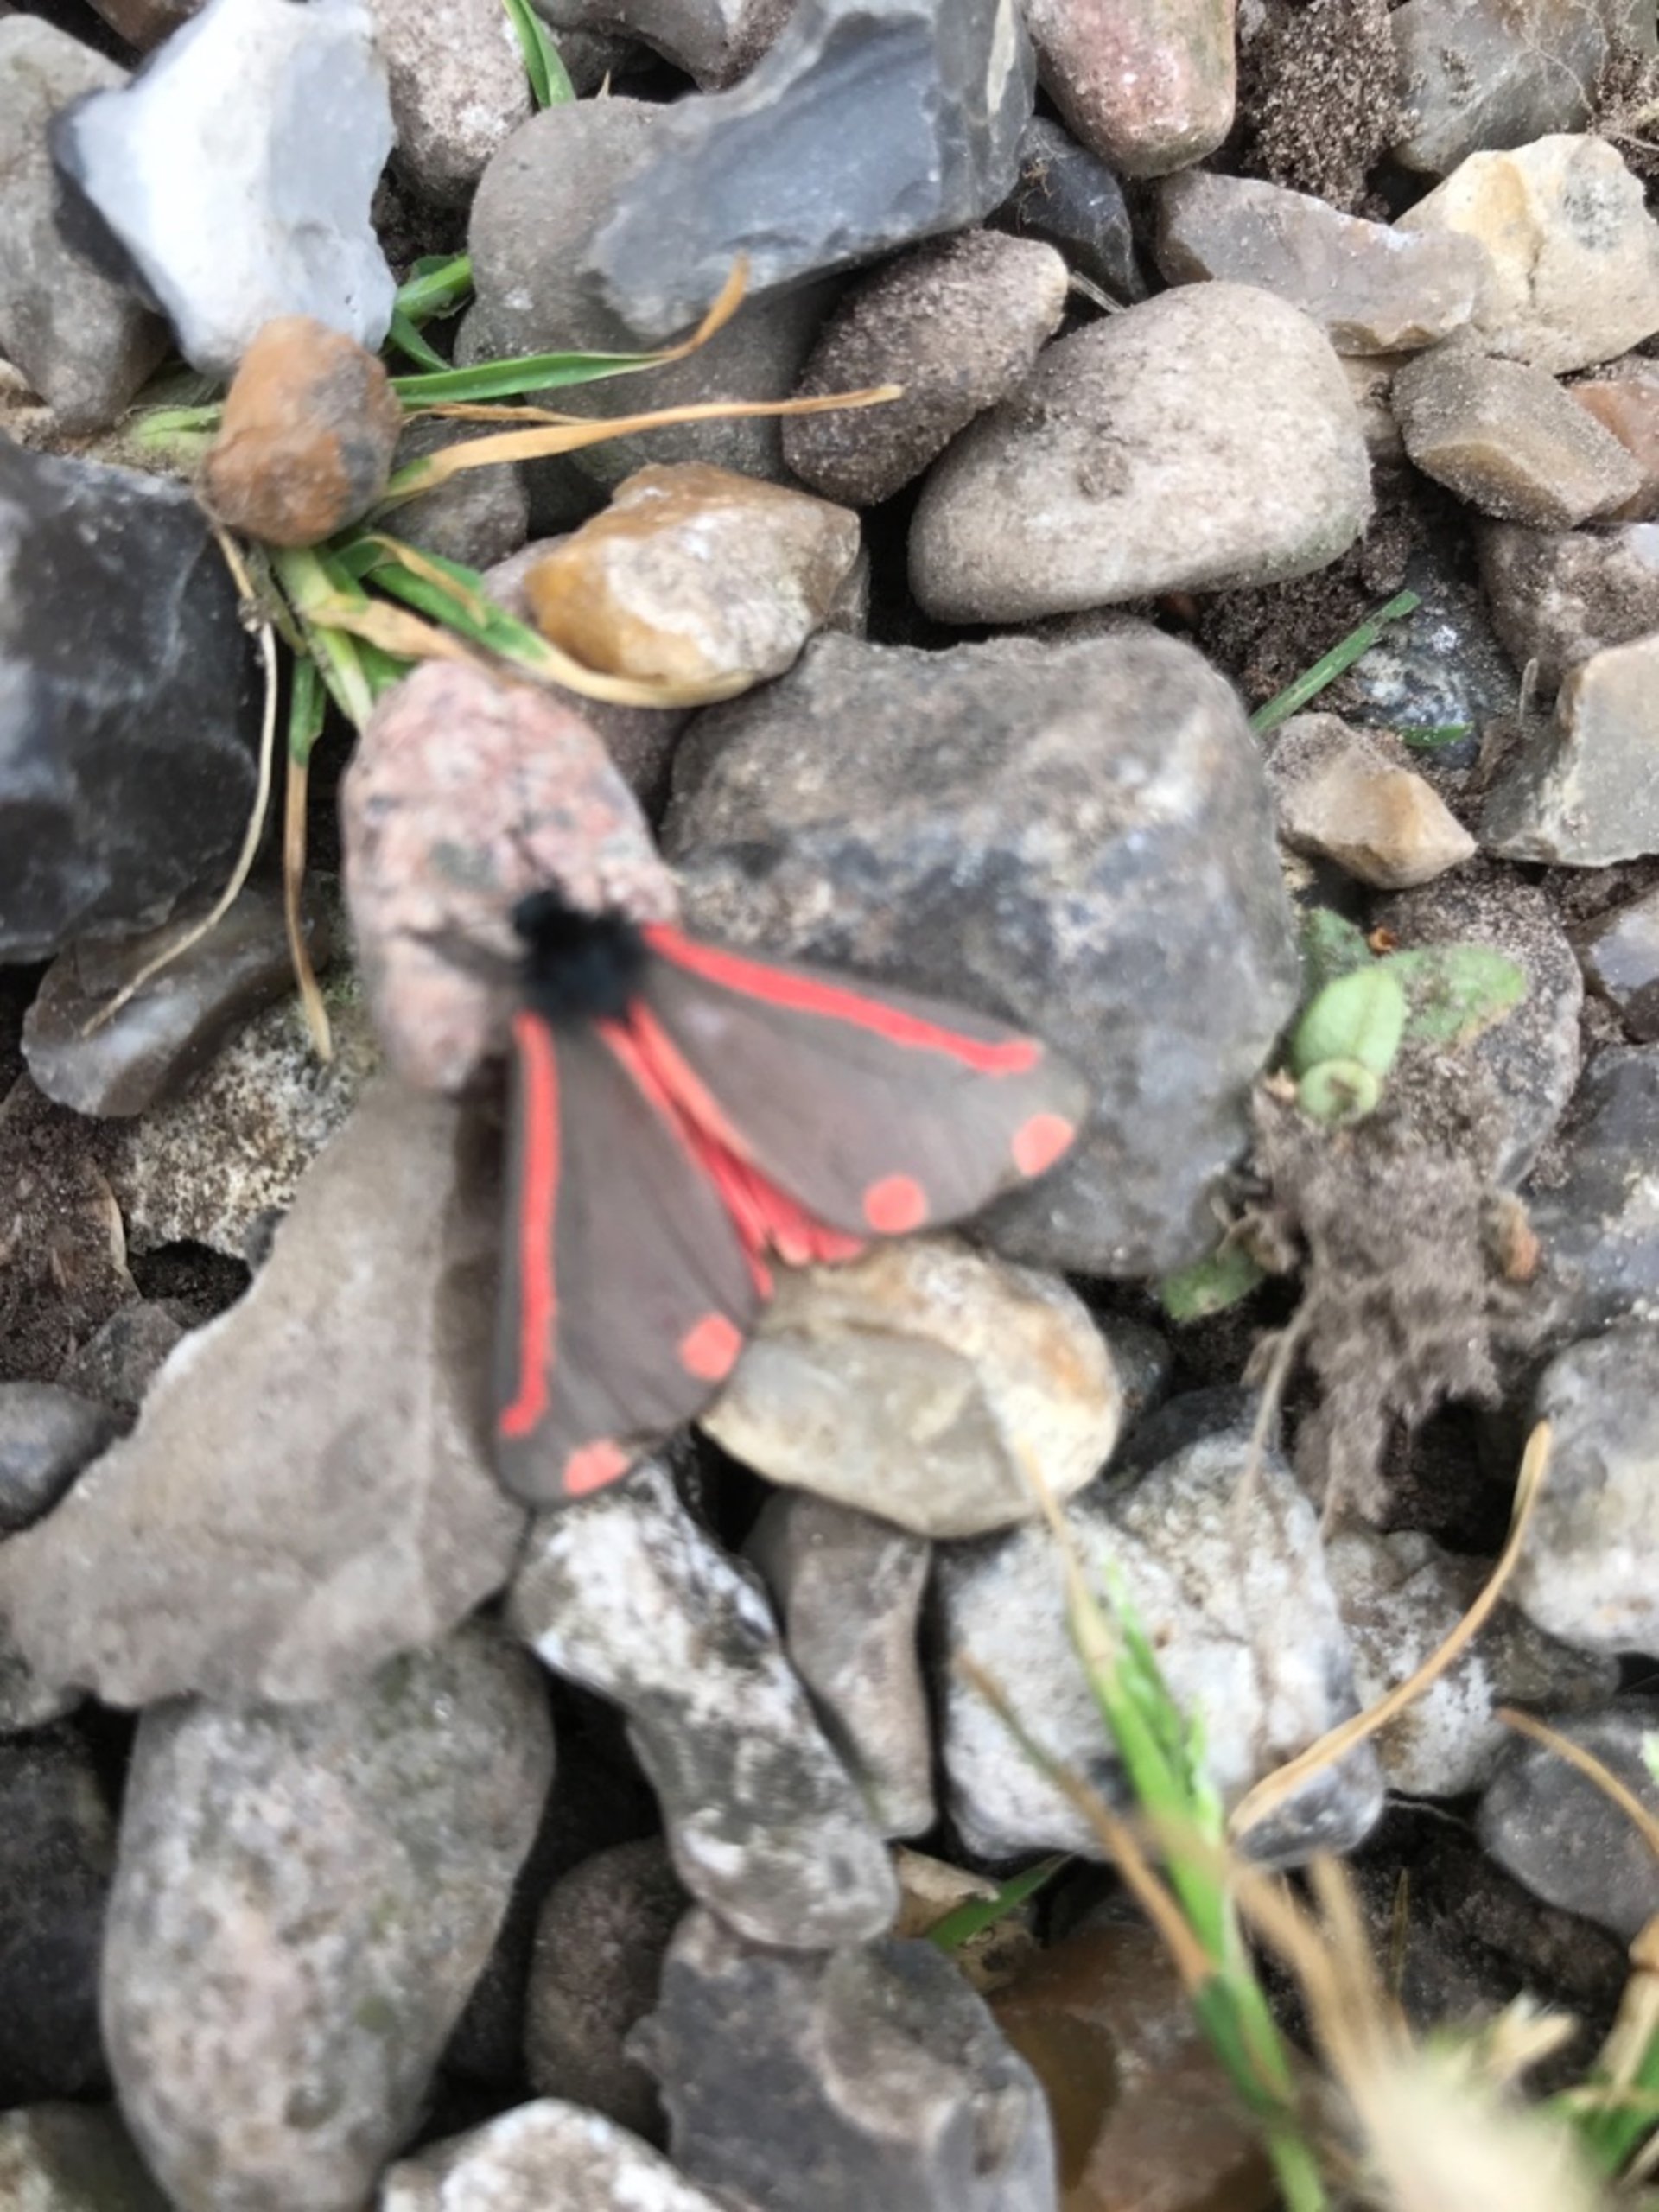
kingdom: Animalia
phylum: Arthropoda
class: Insecta
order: Lepidoptera
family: Erebidae
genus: Tyria
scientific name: Tyria jacobaeae
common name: Blodplet
